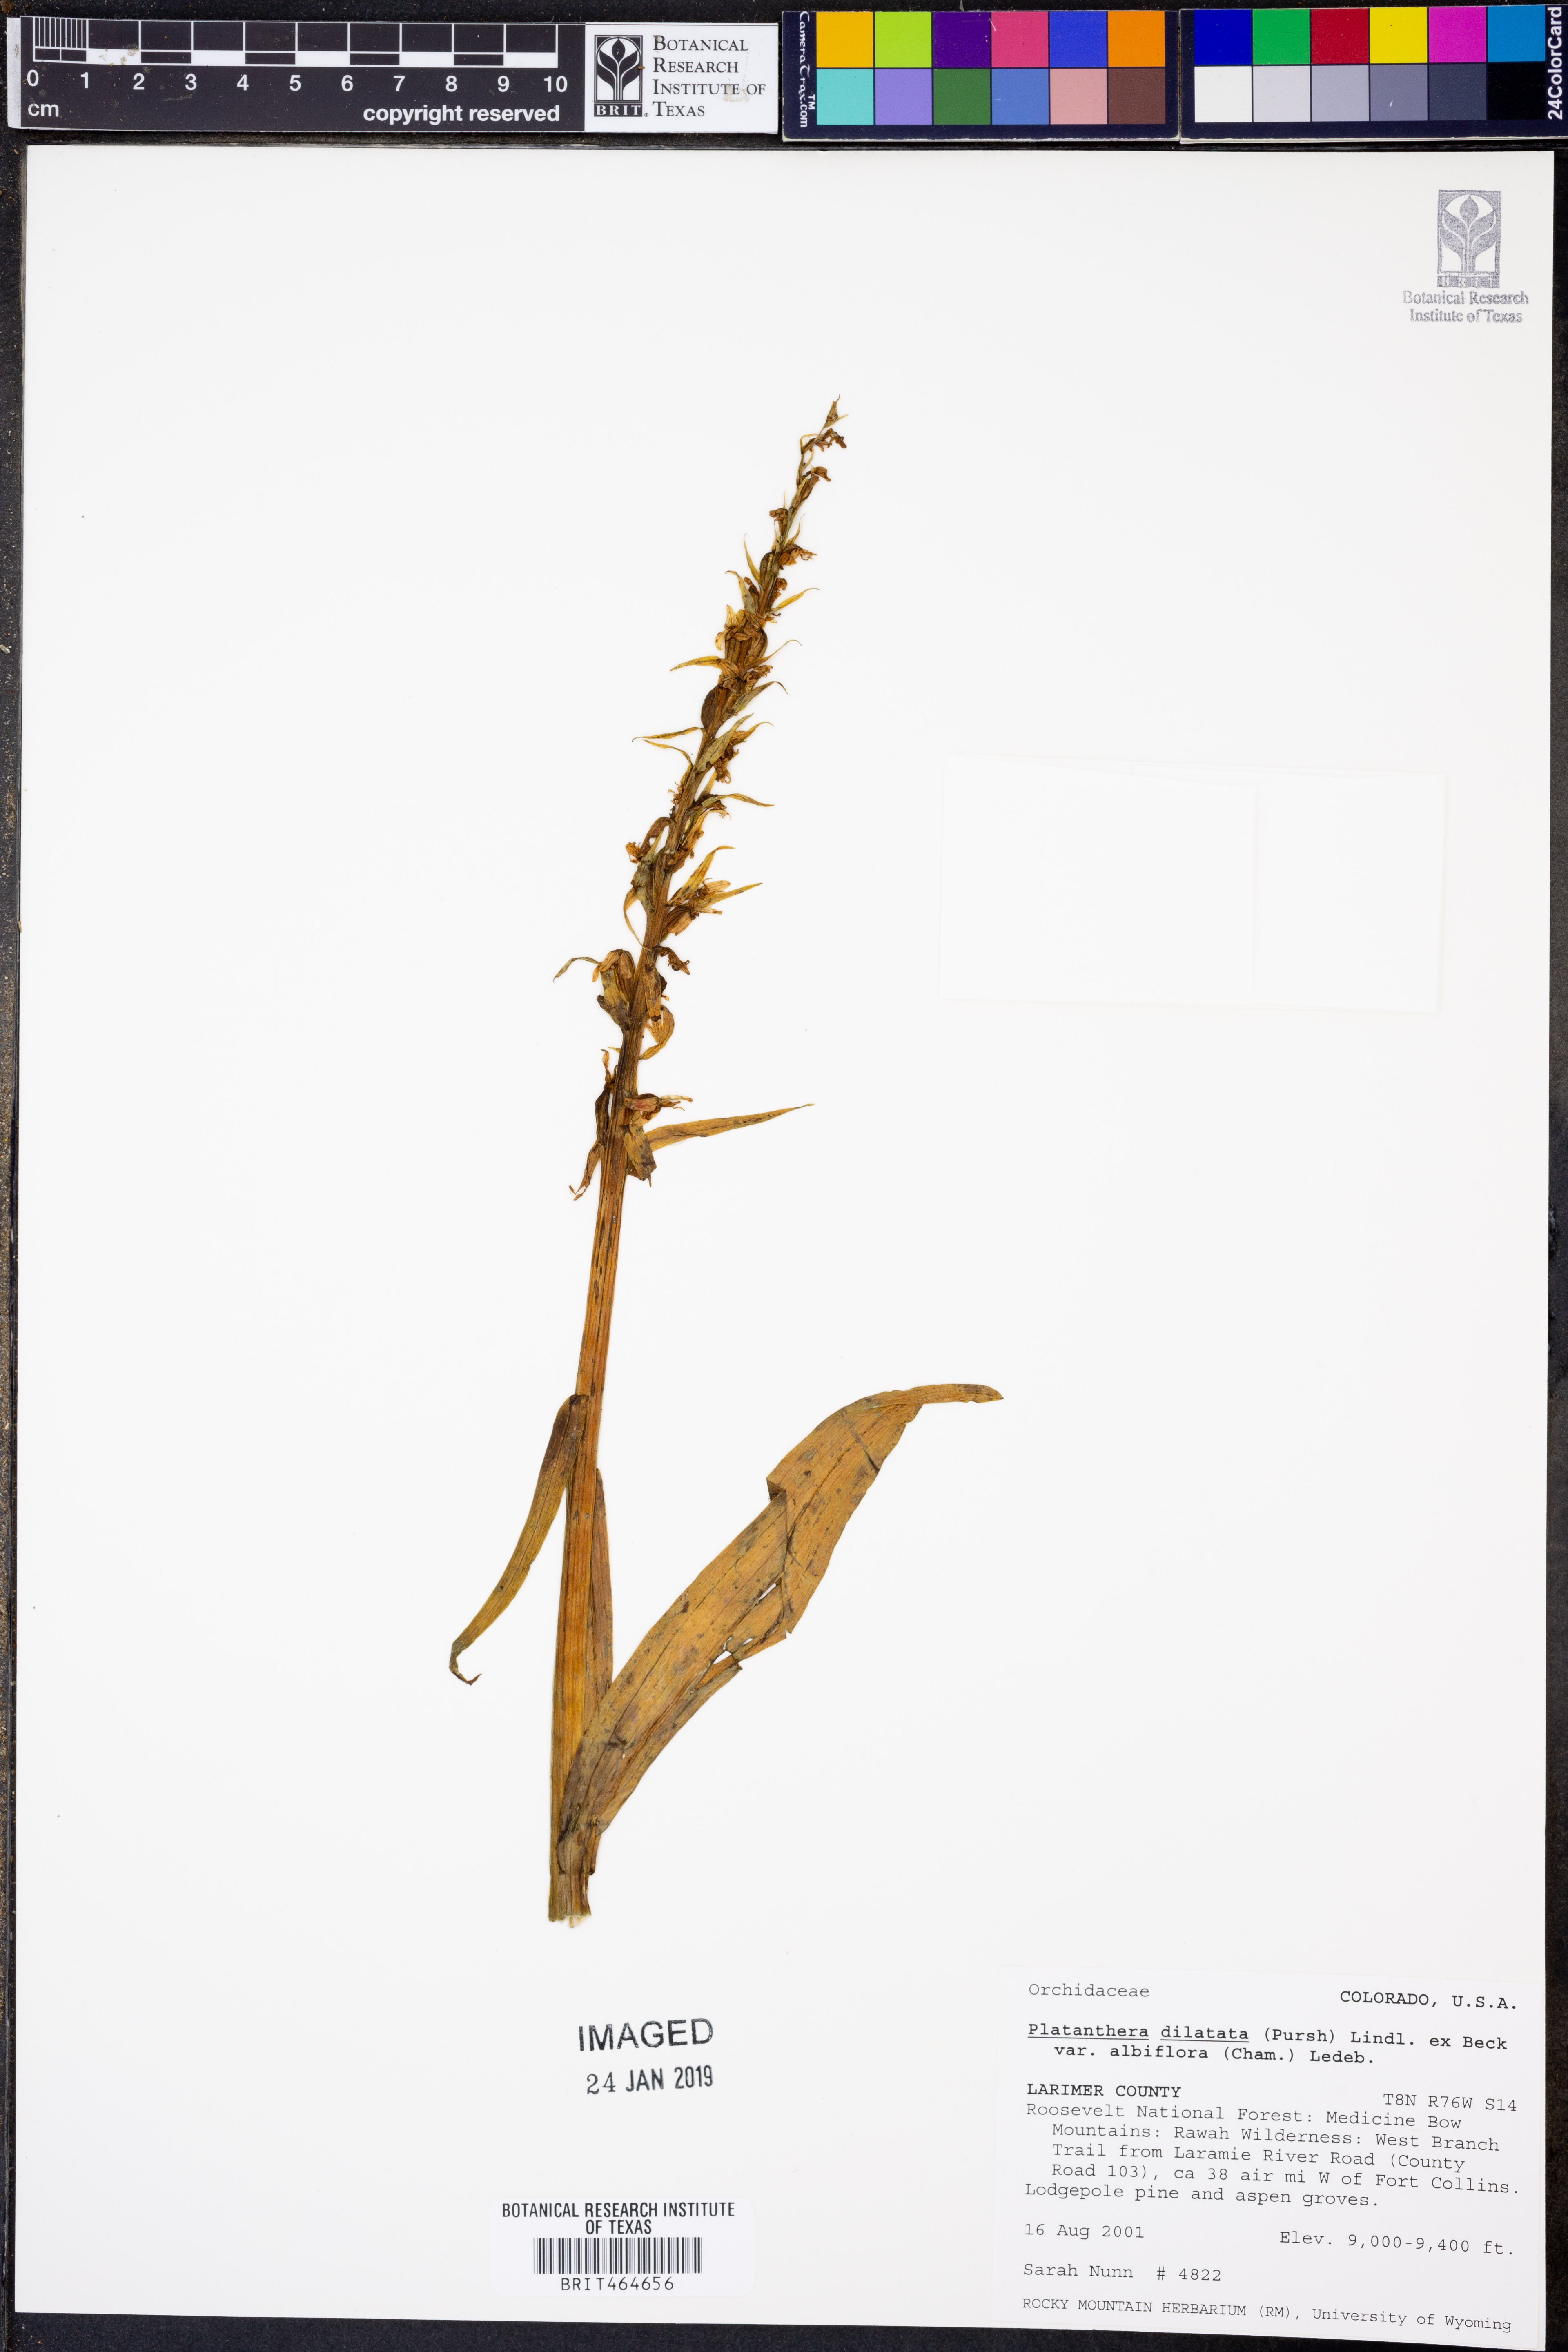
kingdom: Plantae
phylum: Tracheophyta
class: Liliopsida
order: Asparagales
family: Orchidaceae
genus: Platanthera
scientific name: Platanthera dilatata
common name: Bog candles
